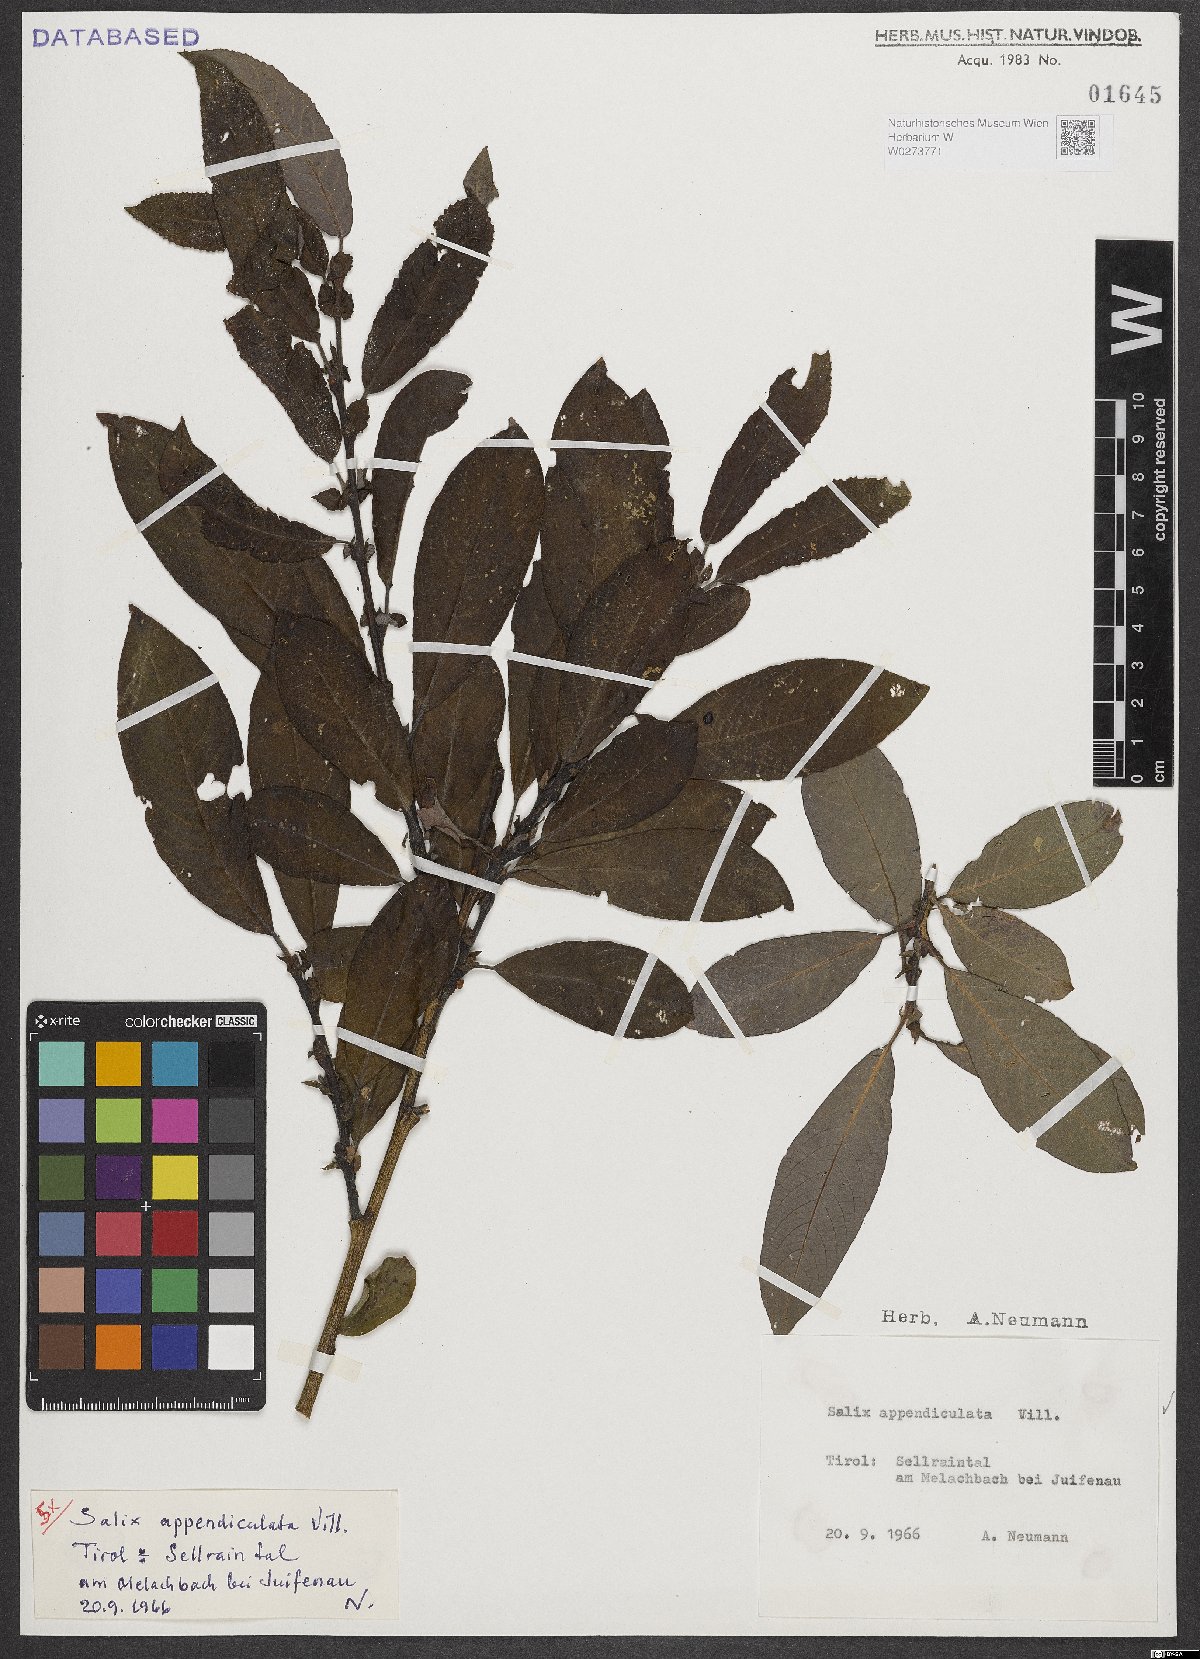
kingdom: Plantae
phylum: Tracheophyta
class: Magnoliopsida
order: Malpighiales
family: Salicaceae
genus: Salix
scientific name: Salix appendiculata
